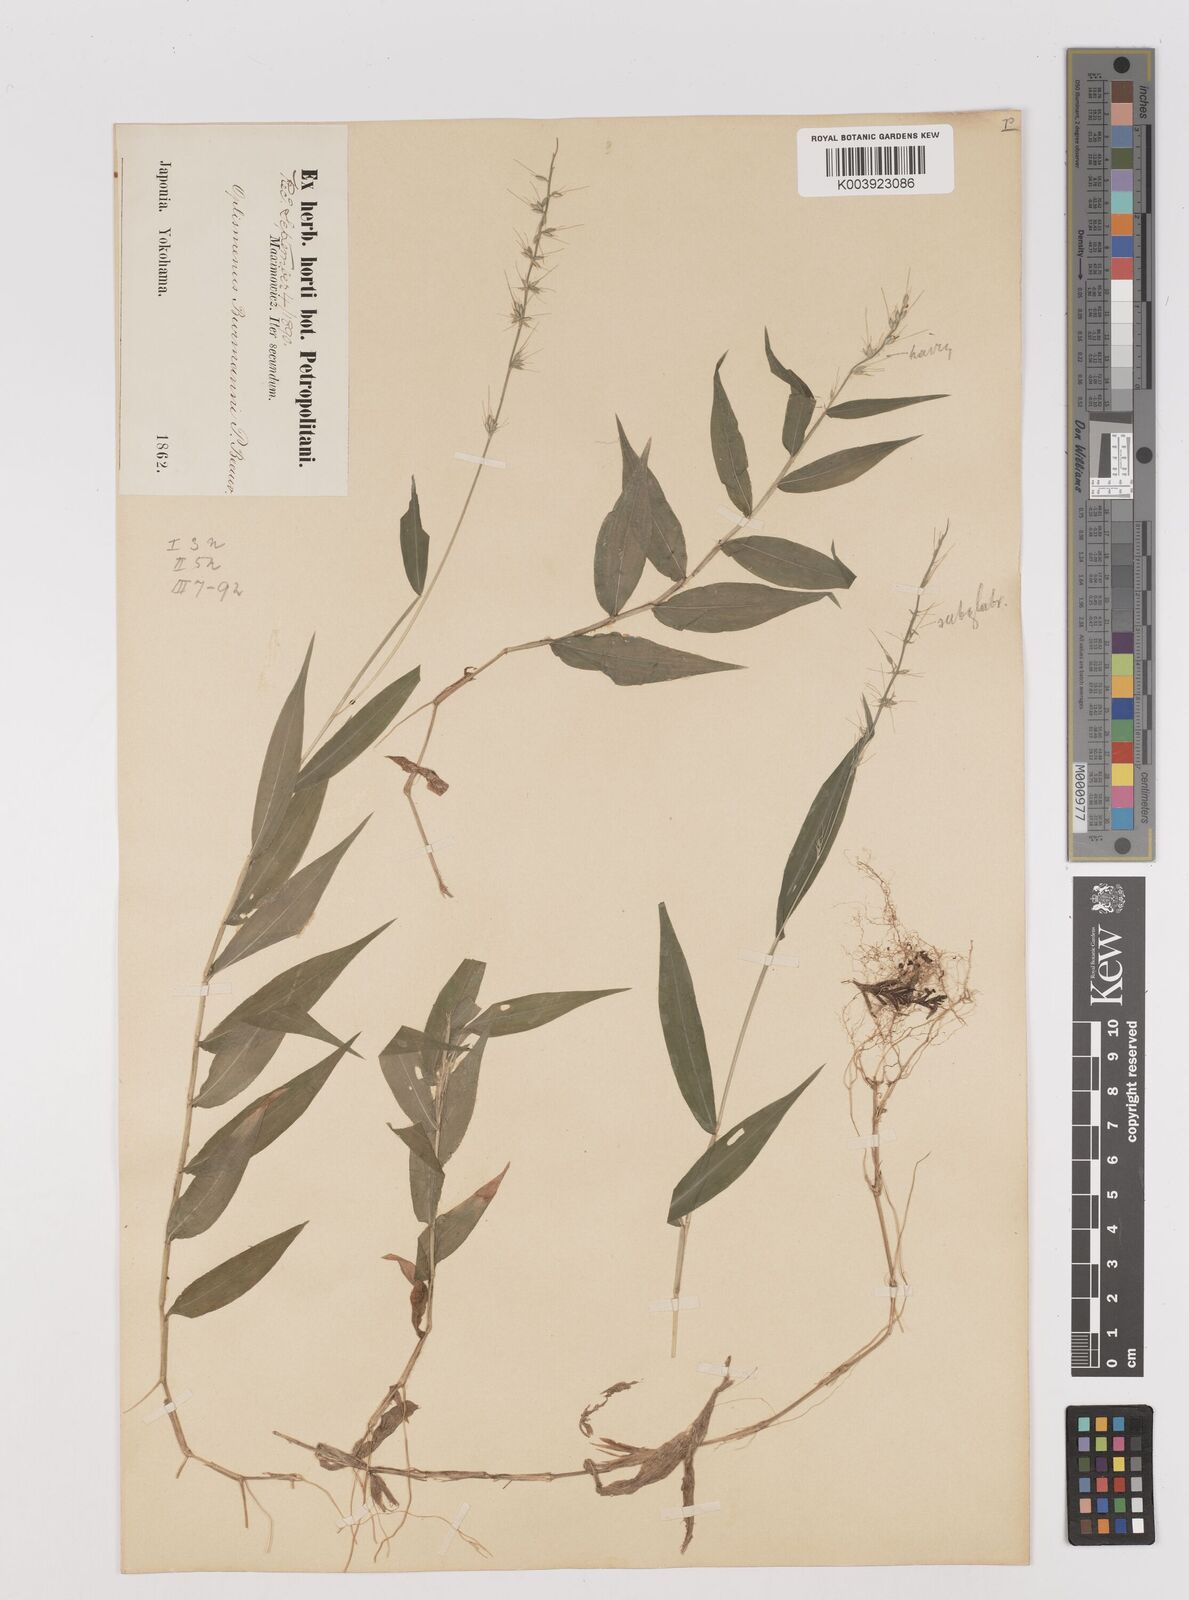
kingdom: Plantae
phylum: Tracheophyta
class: Liliopsida
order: Poales
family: Poaceae
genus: Oplismenus
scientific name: Oplismenus undulatifolius
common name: Wavyleaf basketgrass
